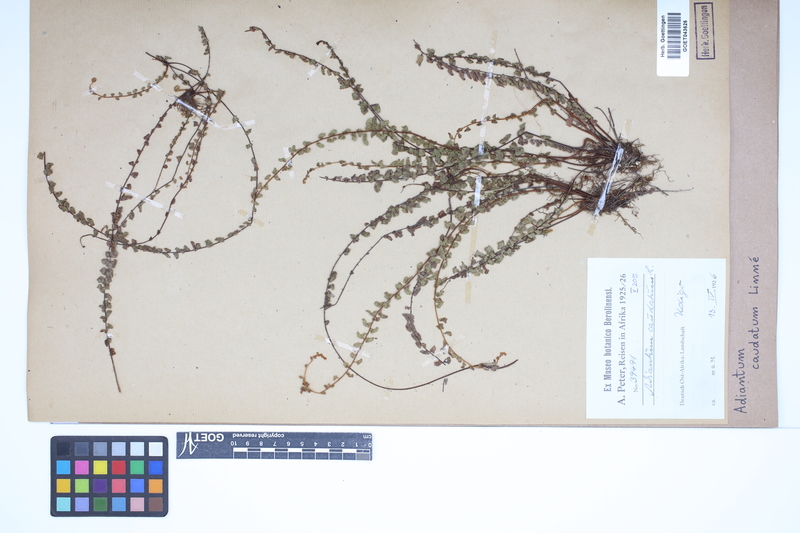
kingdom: Plantae
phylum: Tracheophyta
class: Polypodiopsida
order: Polypodiales
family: Pteridaceae
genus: Adiantum
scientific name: Adiantum caudatum
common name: Tailed maidenhair
